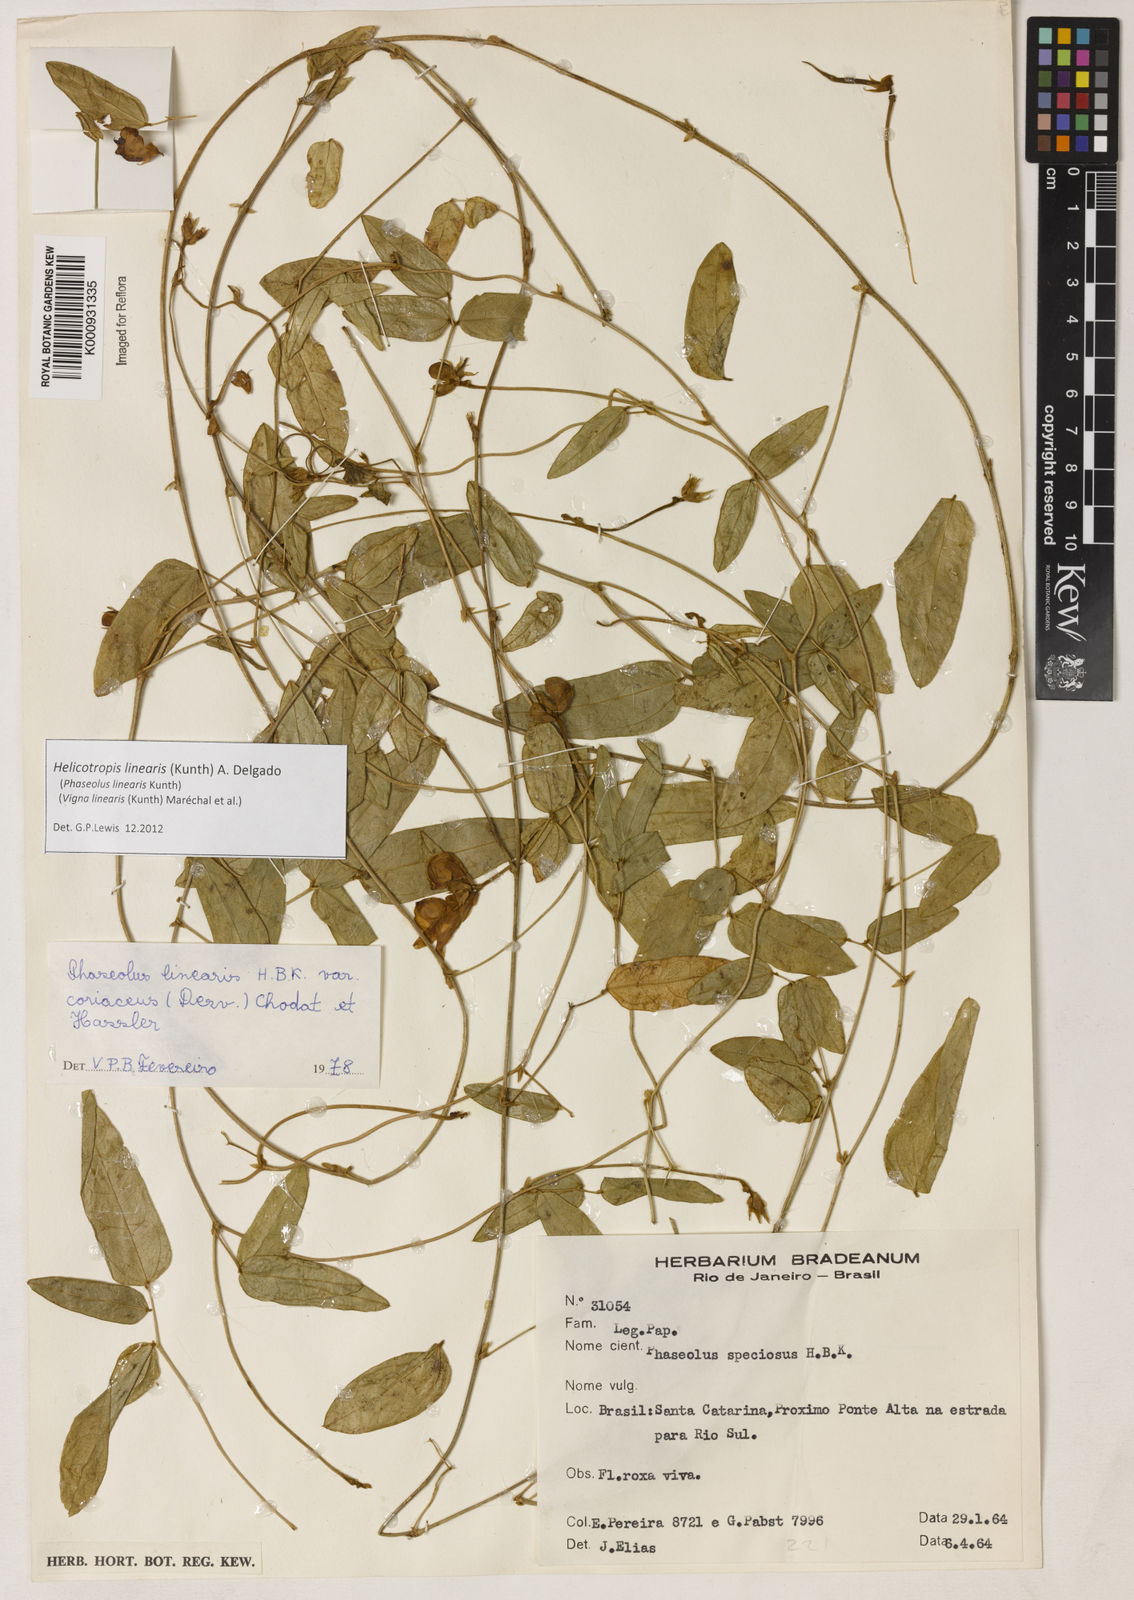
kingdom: Plantae
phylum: Tracheophyta
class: Magnoliopsida
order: Fabales
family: Fabaceae
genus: Helicotropis
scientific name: Helicotropis linearis
